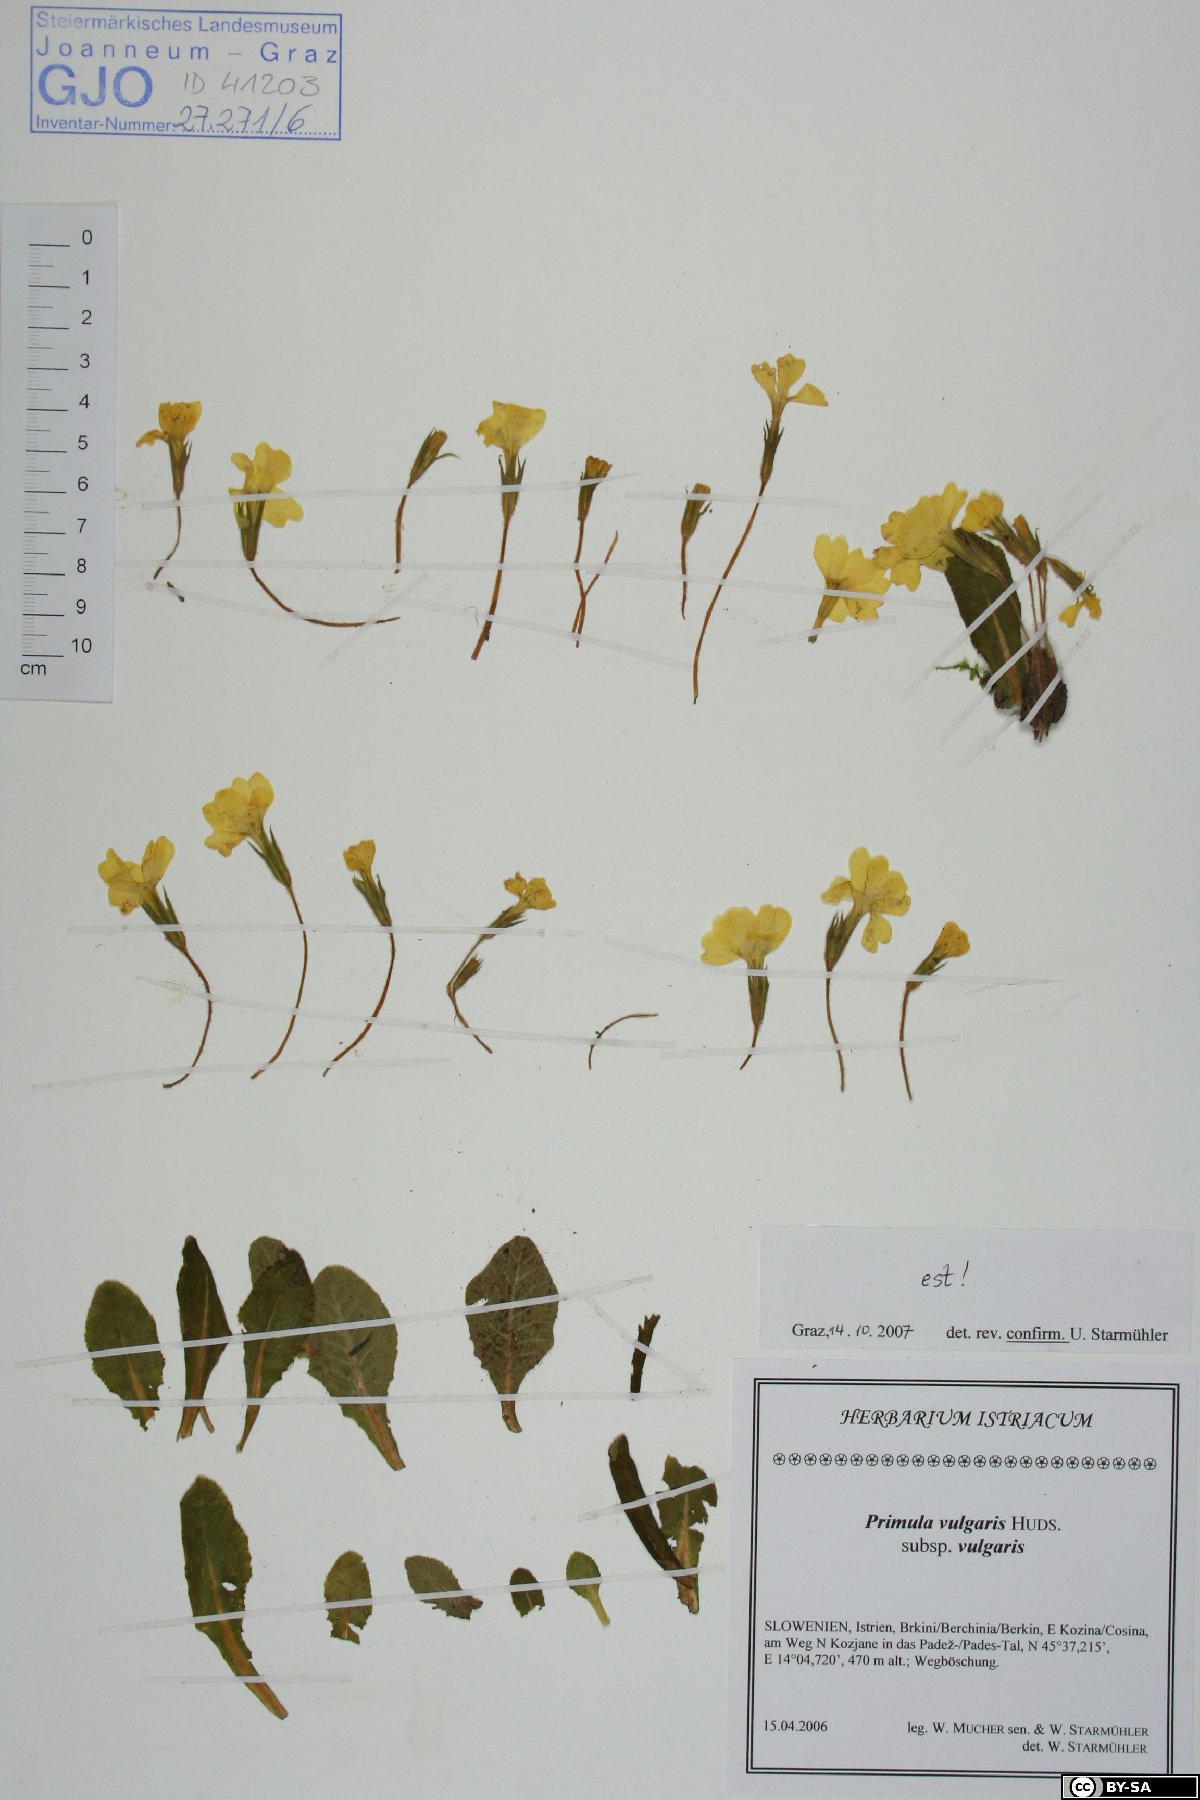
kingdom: Plantae
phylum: Tracheophyta
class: Magnoliopsida
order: Ericales
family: Primulaceae
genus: Primula
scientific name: Primula vulgaris
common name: Primrose
